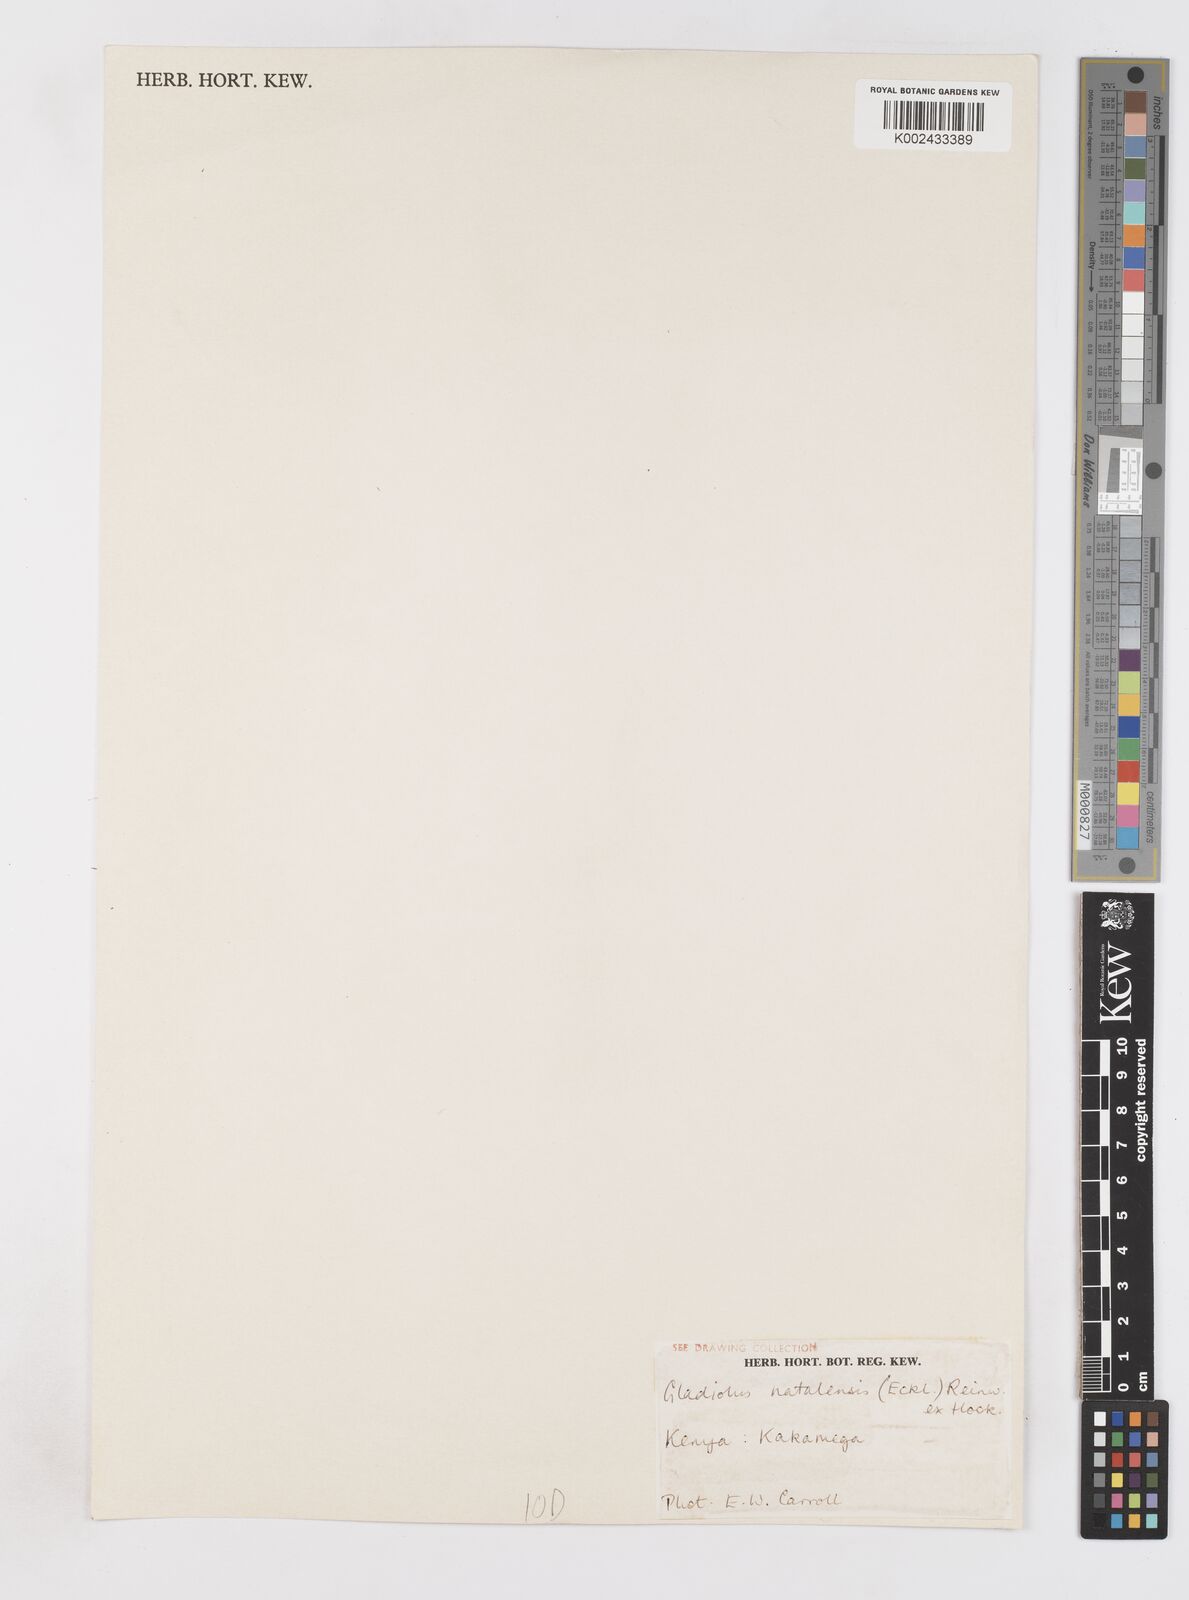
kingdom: Plantae
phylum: Tracheophyta
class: Liliopsida
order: Asparagales
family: Iridaceae
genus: Gladiolus
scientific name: Gladiolus dalenii
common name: Cornflag
